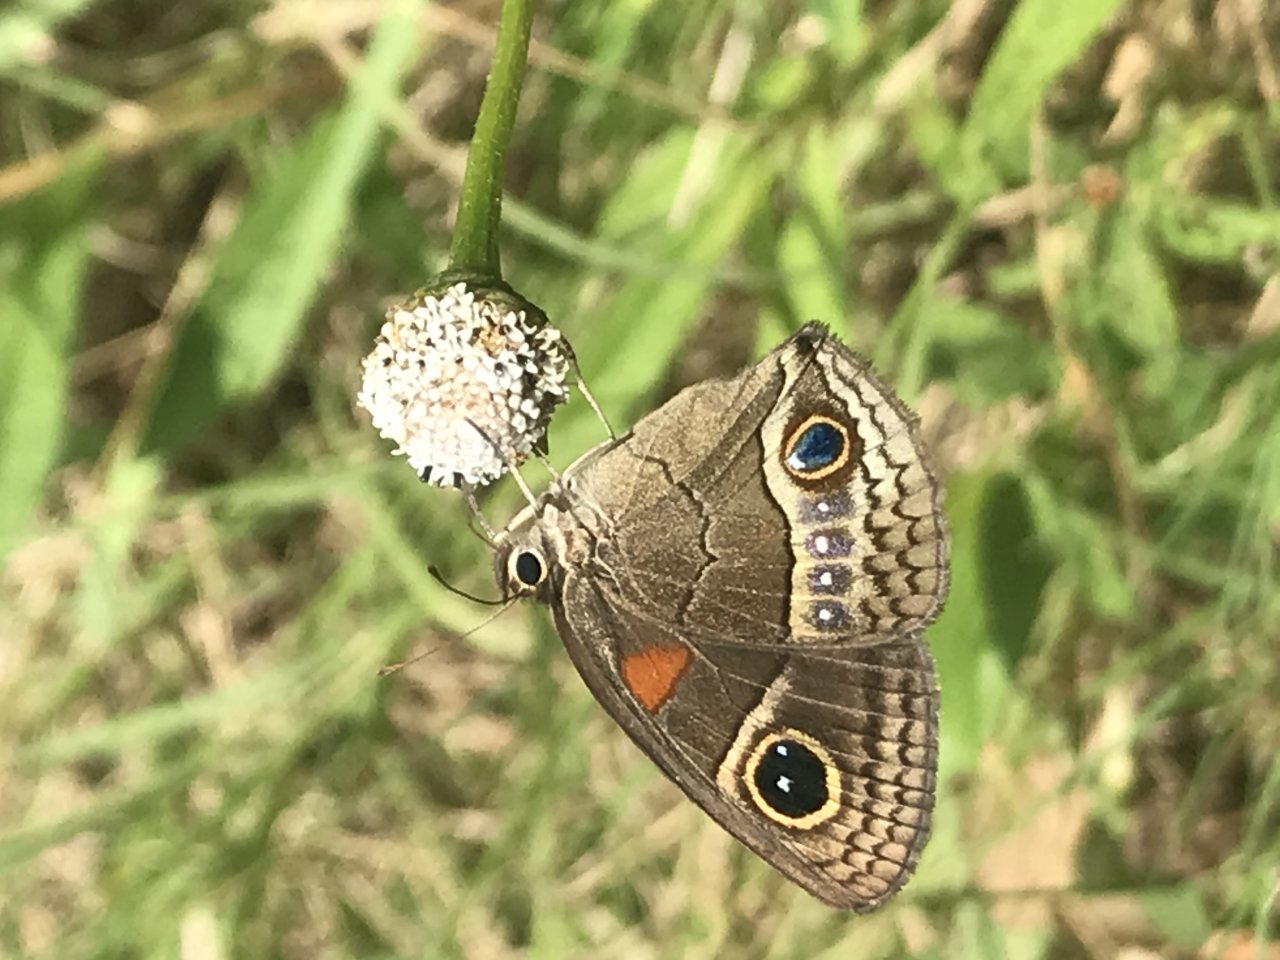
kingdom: Animalia
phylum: Arthropoda
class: Insecta
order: Lepidoptera
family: Nymphalidae
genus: Calisto
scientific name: Calisto herophile
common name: Cuban Calisto
